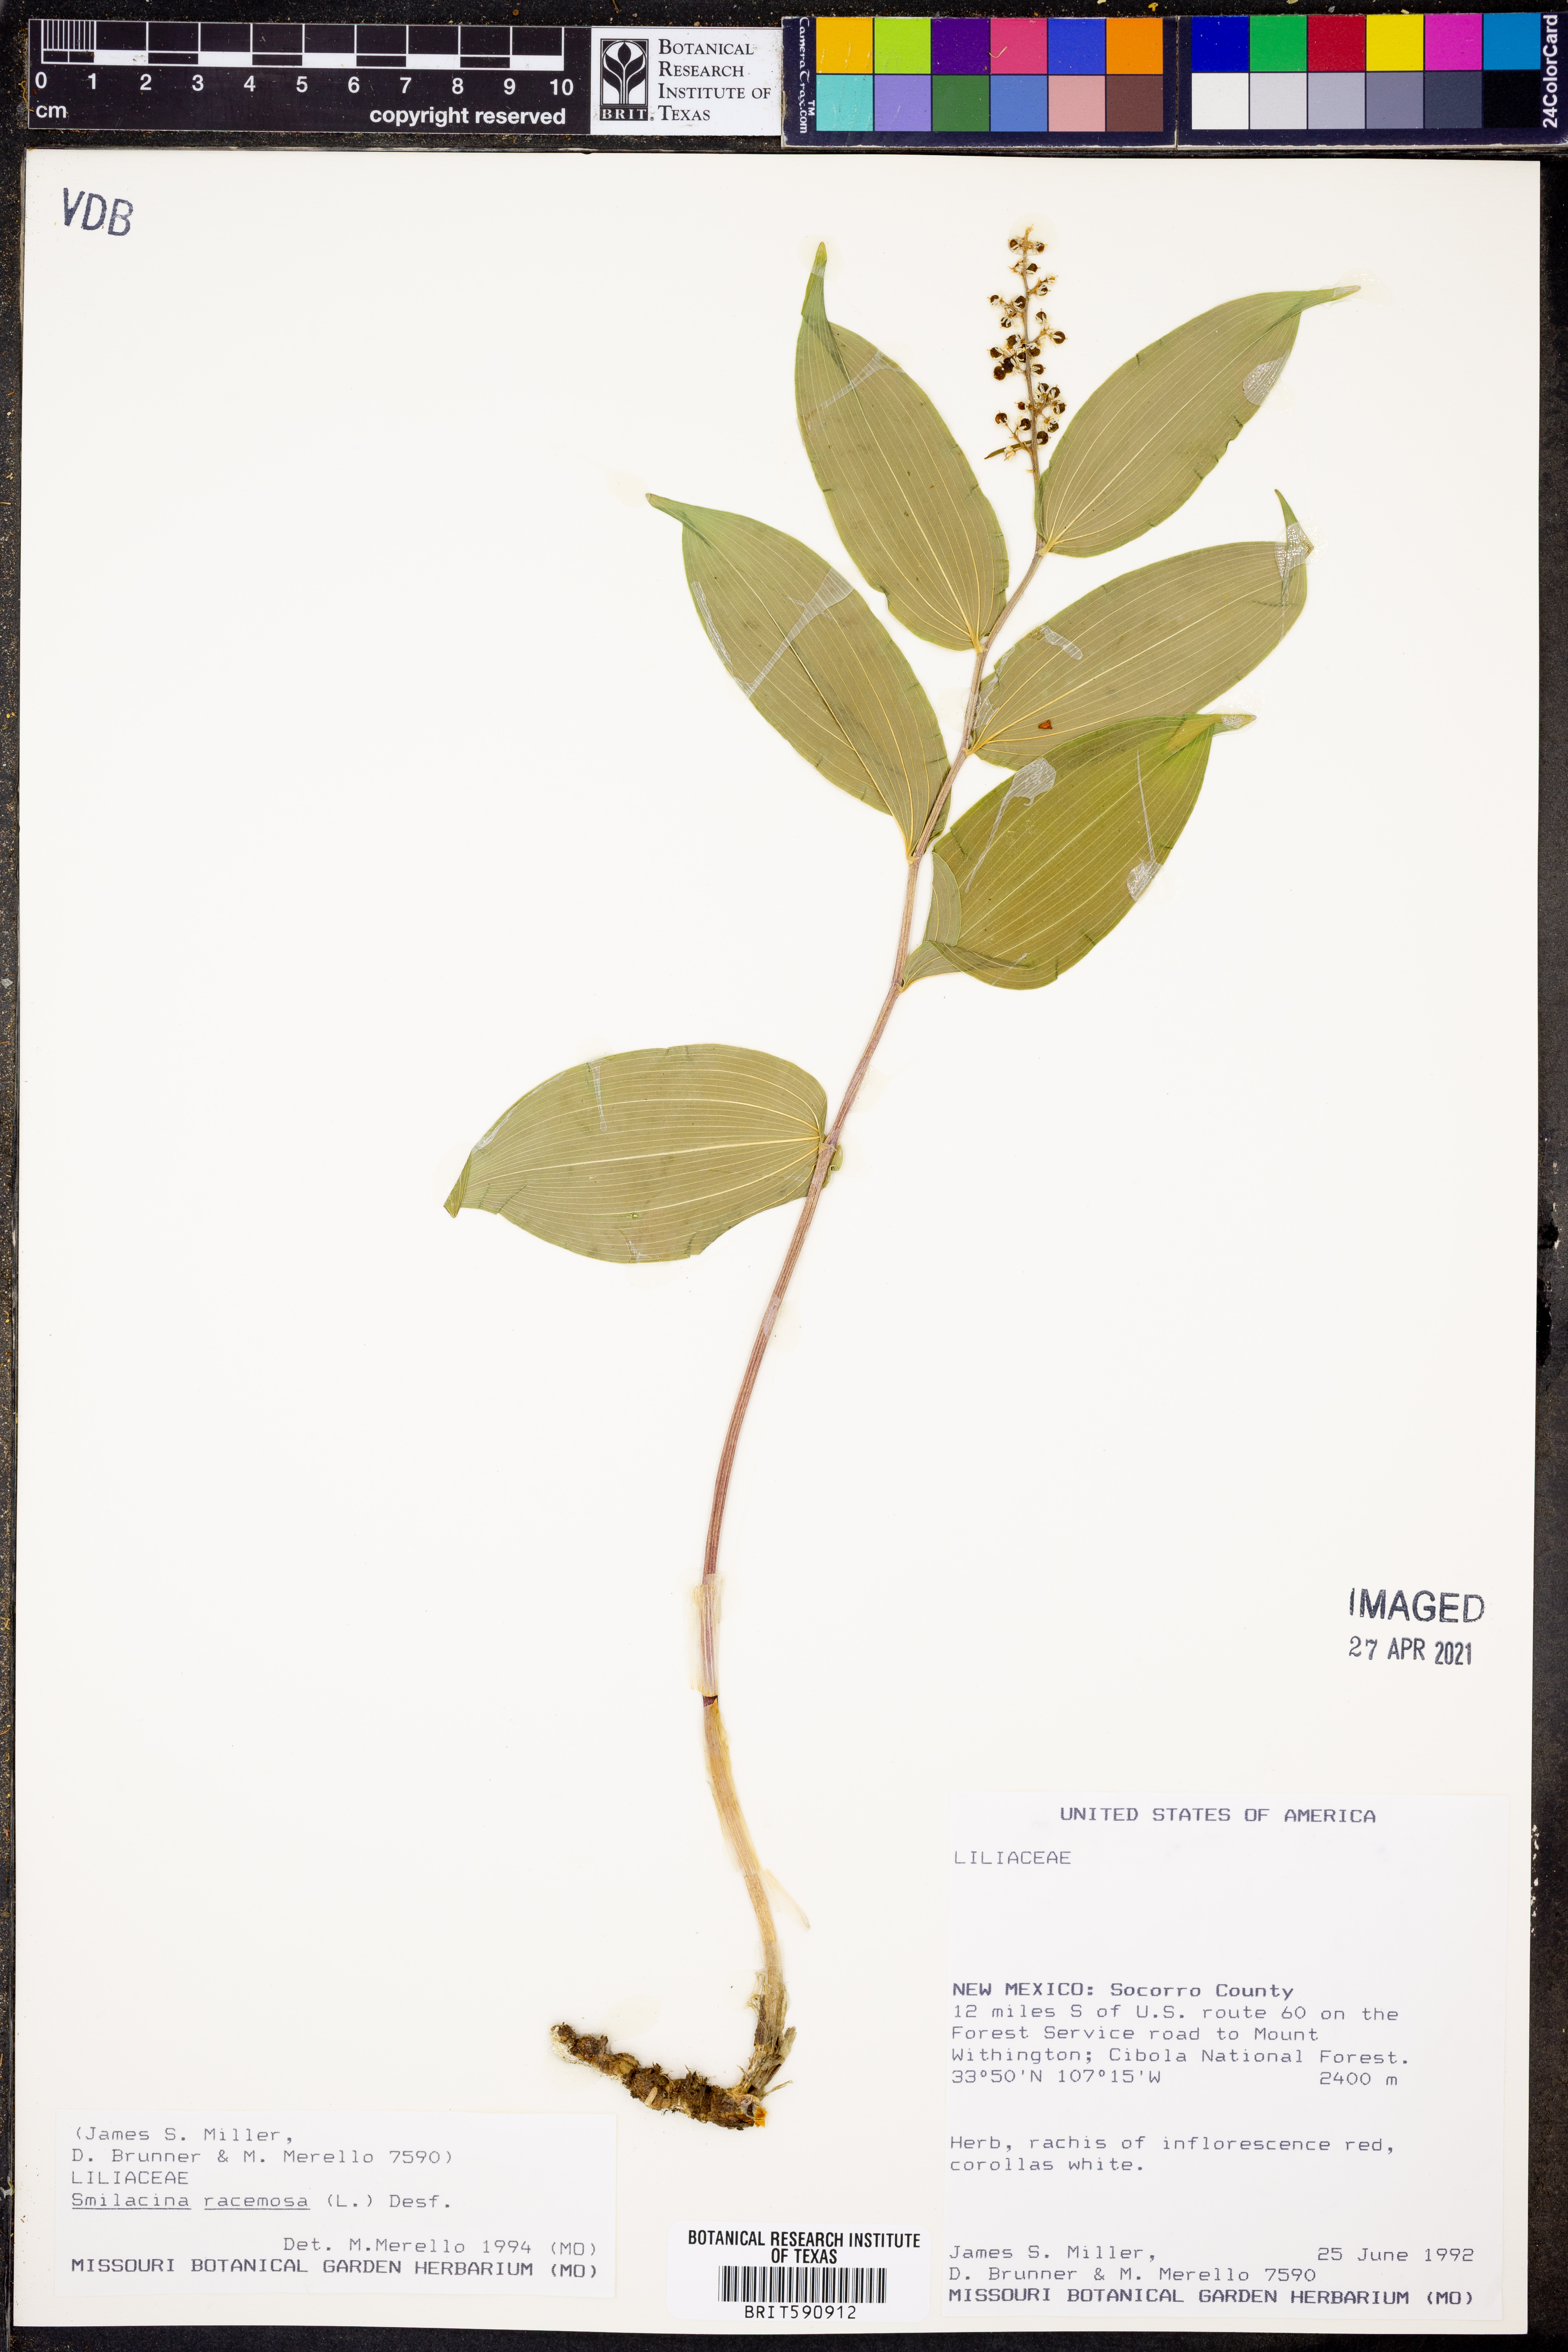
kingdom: Plantae
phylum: Tracheophyta
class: Liliopsida
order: Asparagales
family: Asparagaceae
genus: Maianthemum
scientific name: Maianthemum racemosum
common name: False spikenard
